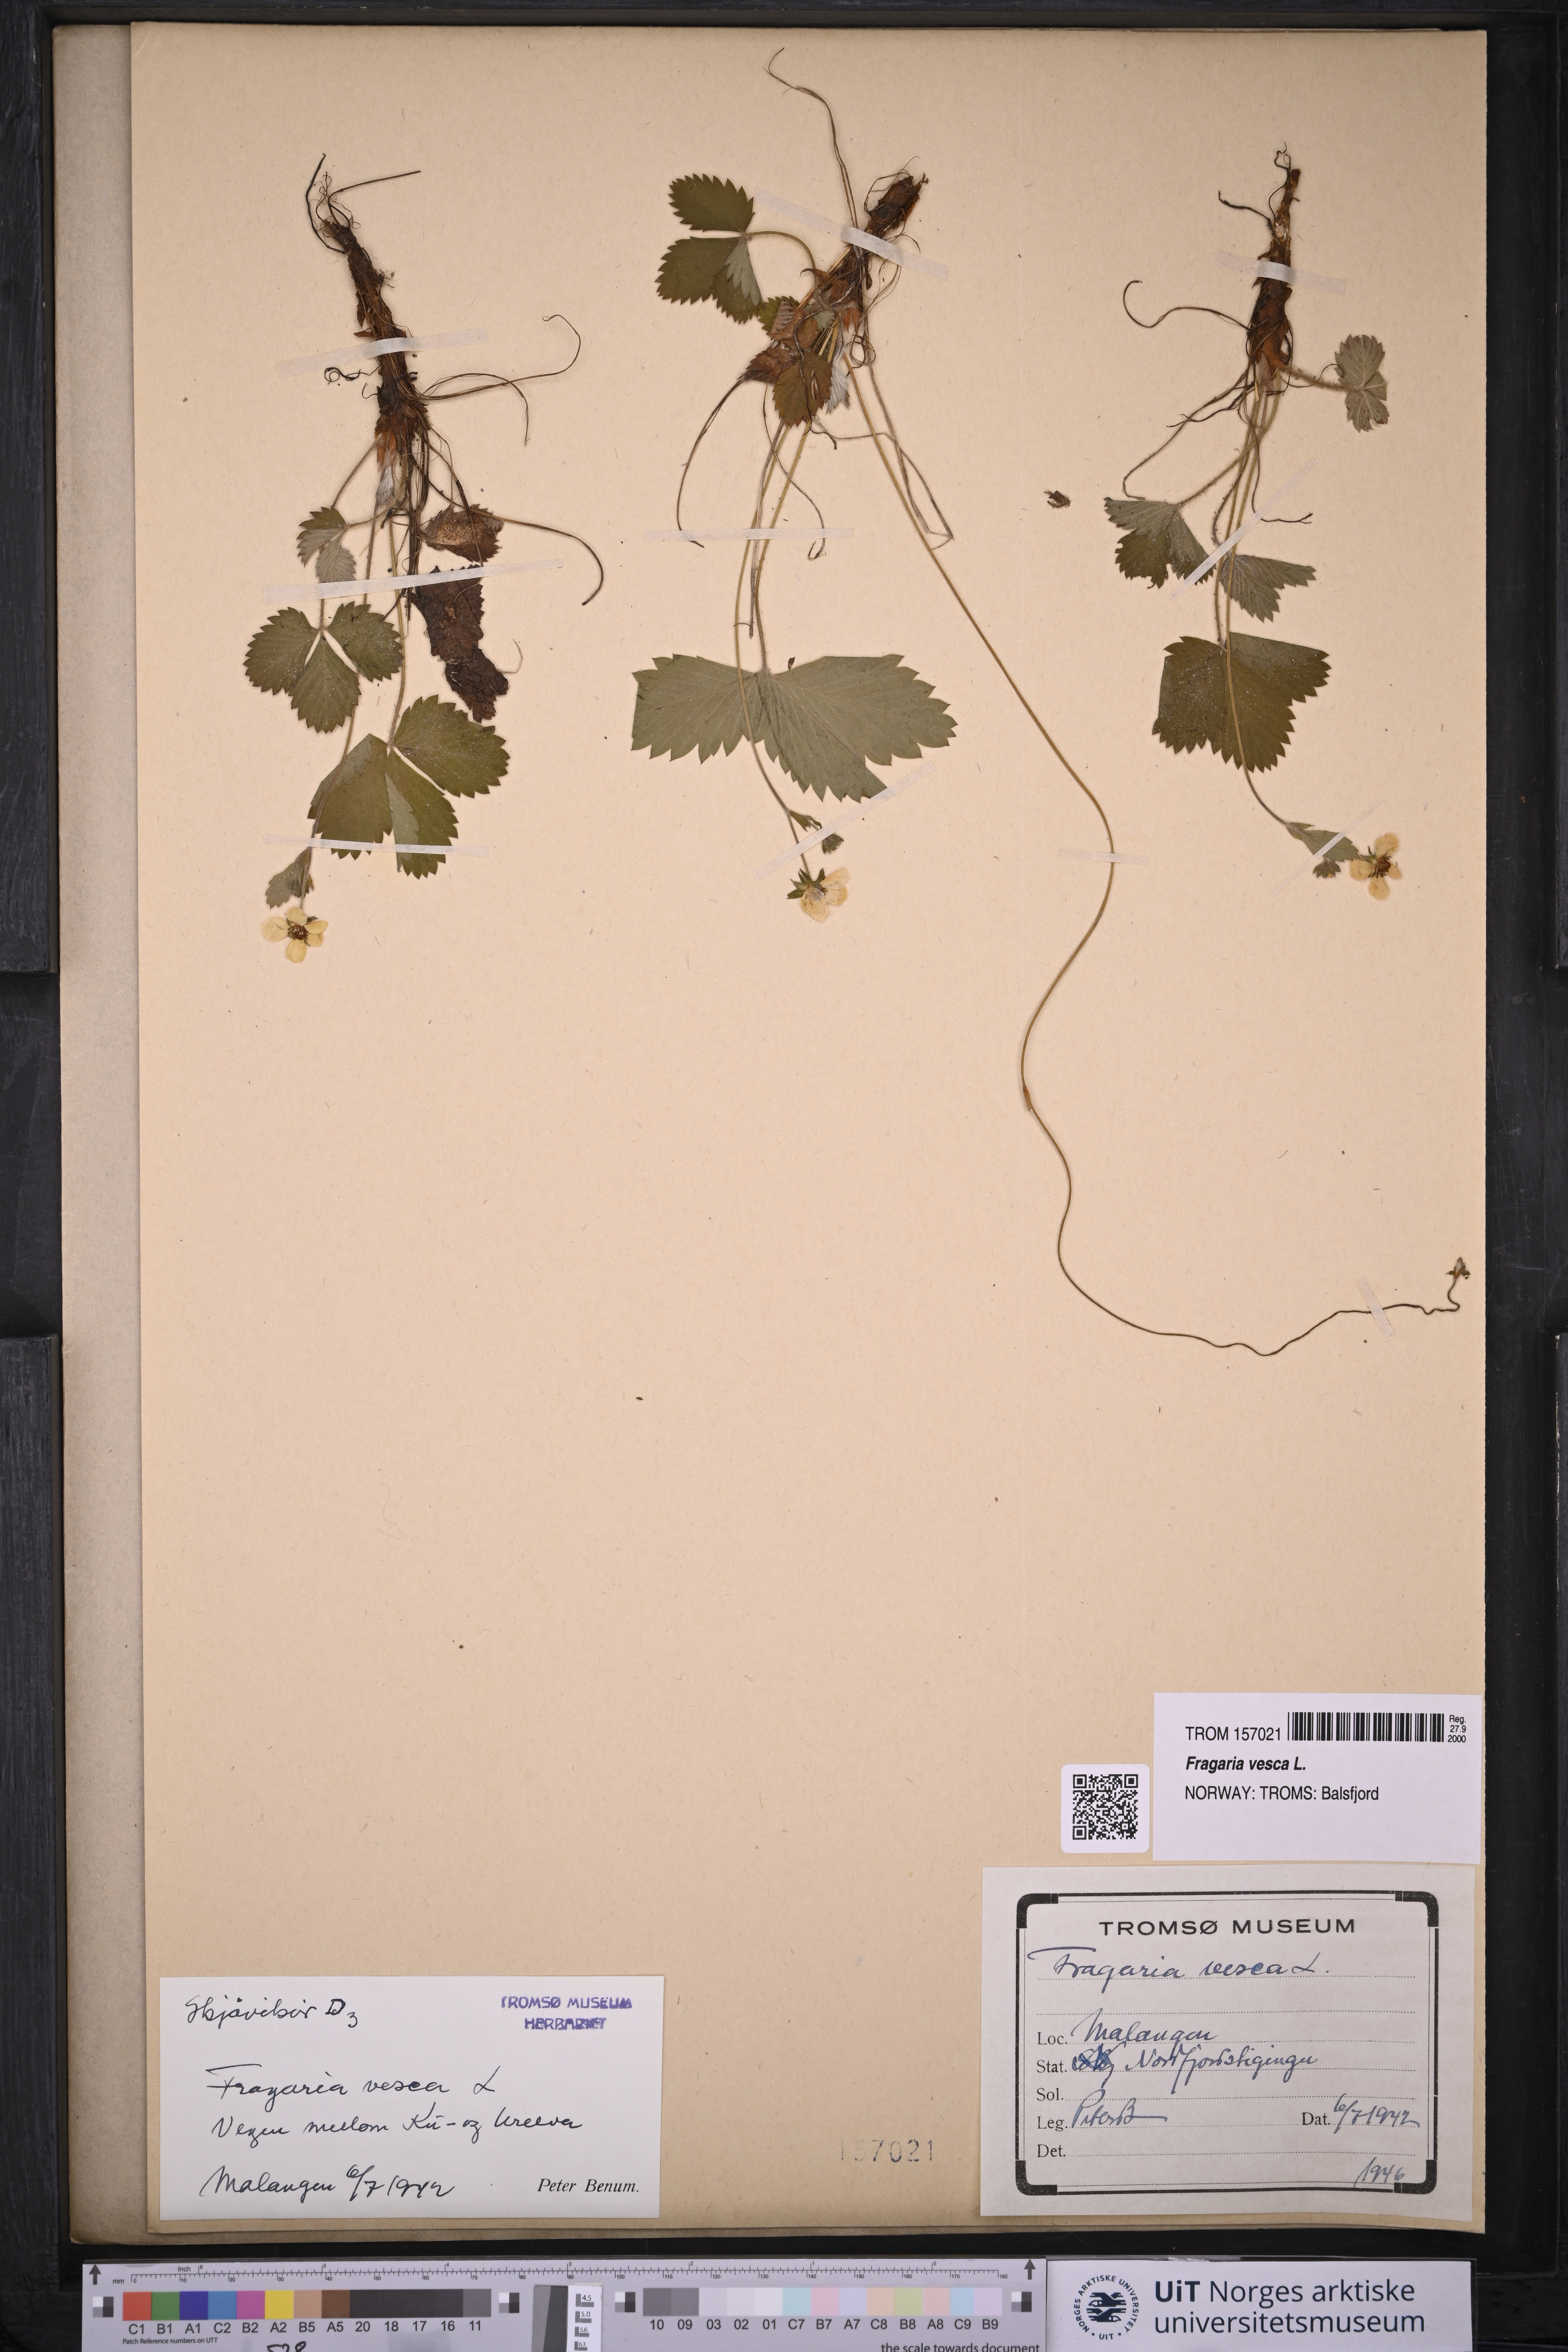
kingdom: Plantae
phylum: Tracheophyta
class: Magnoliopsida
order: Rosales
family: Rosaceae
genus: Fragaria
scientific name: Fragaria vesca
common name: Wild strawberry
